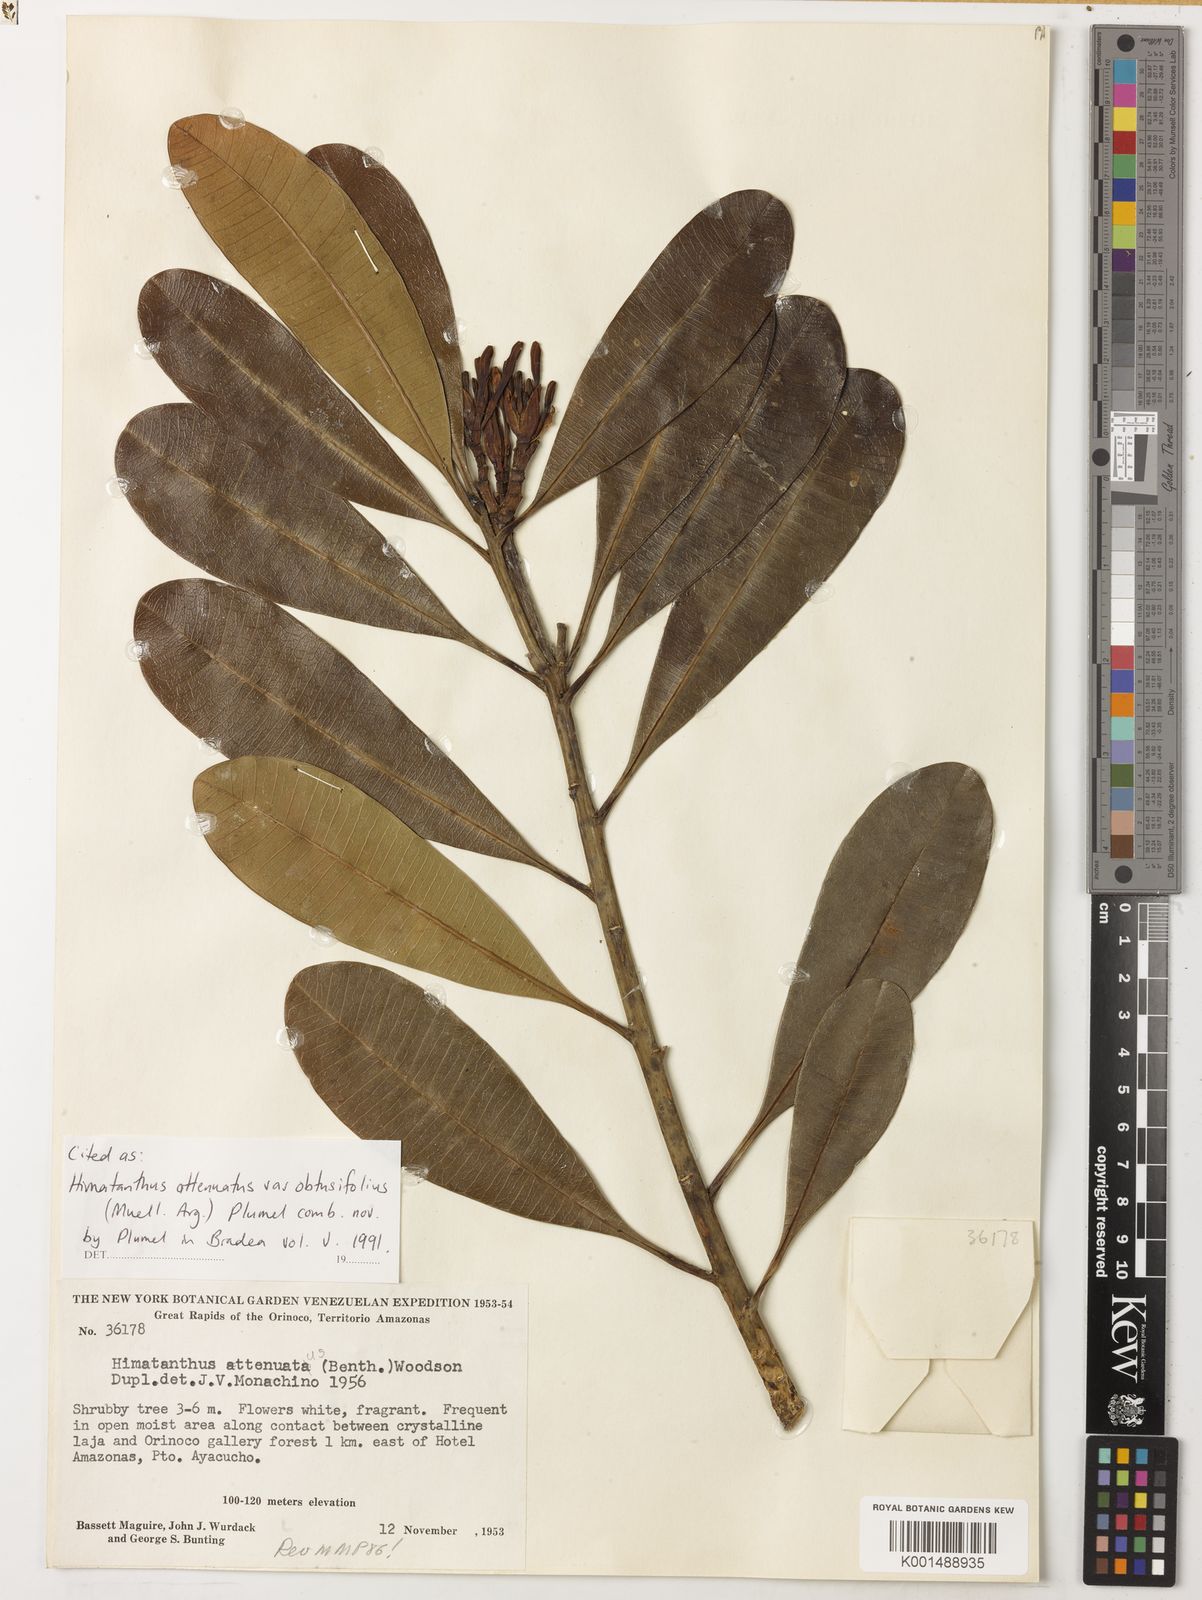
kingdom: Plantae
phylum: Tracheophyta
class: Magnoliopsida
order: Gentianales
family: Apocynaceae
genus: Himatanthus
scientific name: Himatanthus attenuatus
